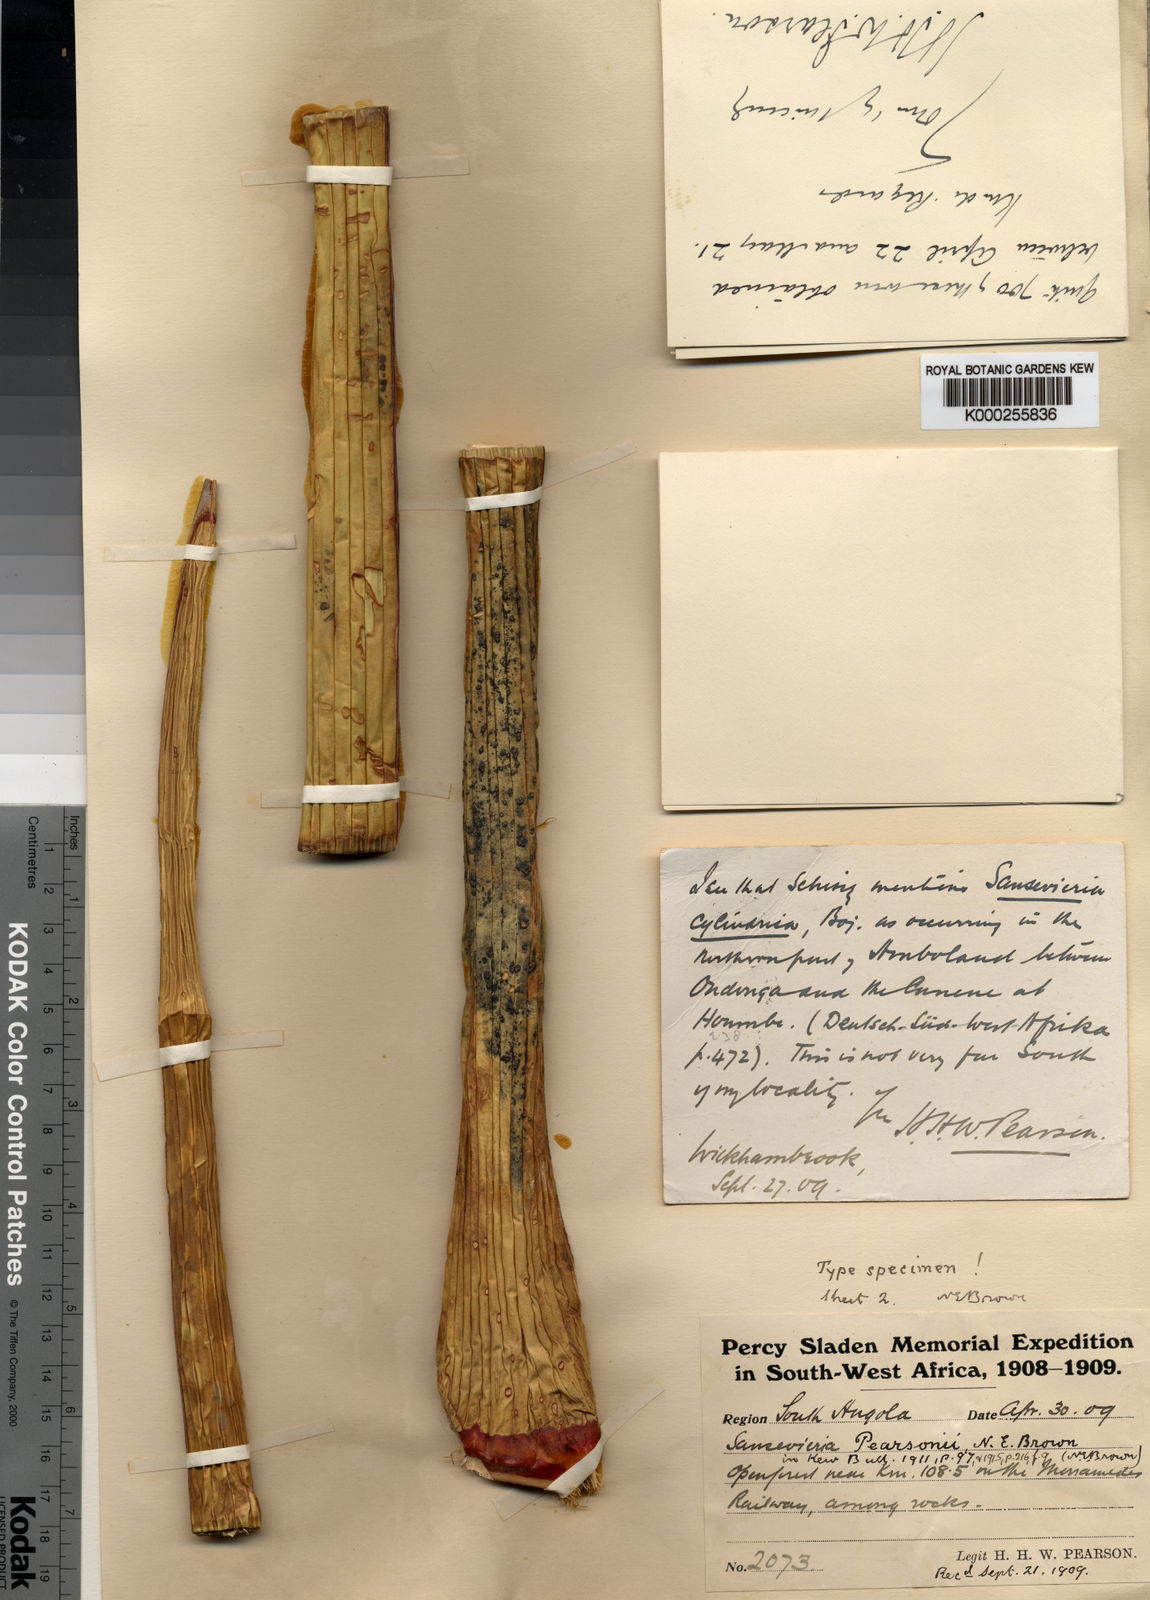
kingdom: Plantae
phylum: Tracheophyta
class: Liliopsida
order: Asparagales
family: Asparagaceae
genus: Dracaena
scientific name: Dracaena pearsonii
